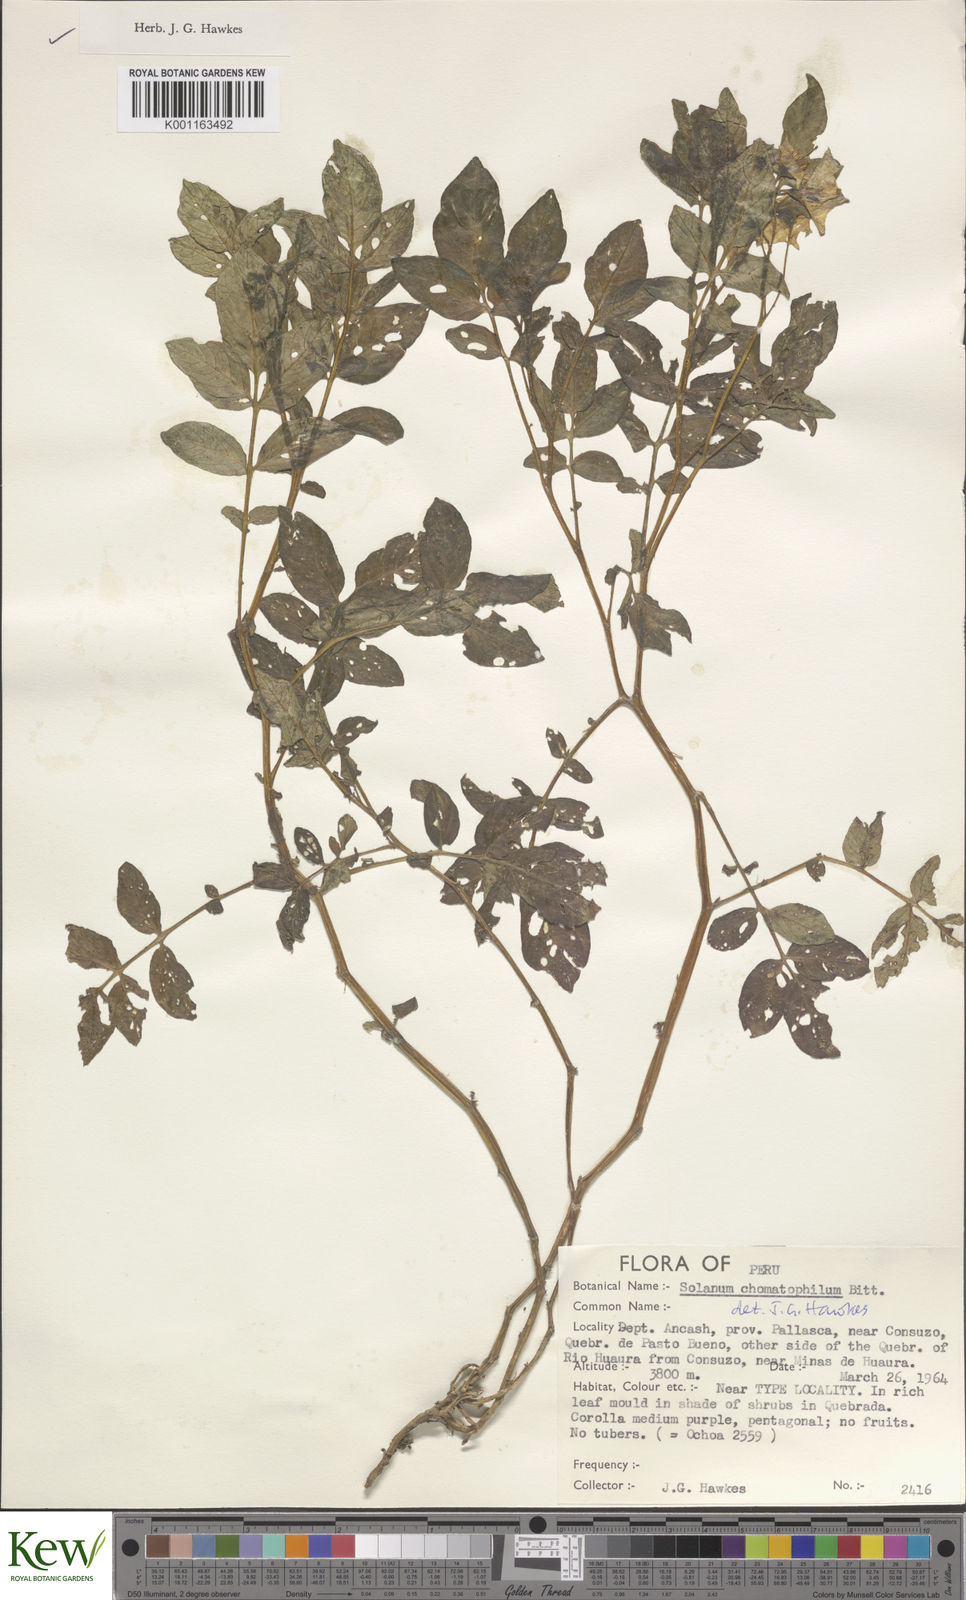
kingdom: Plantae
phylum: Tracheophyta
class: Magnoliopsida
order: Solanales
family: Solanaceae
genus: Solanum
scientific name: Solanum chomatophilum
